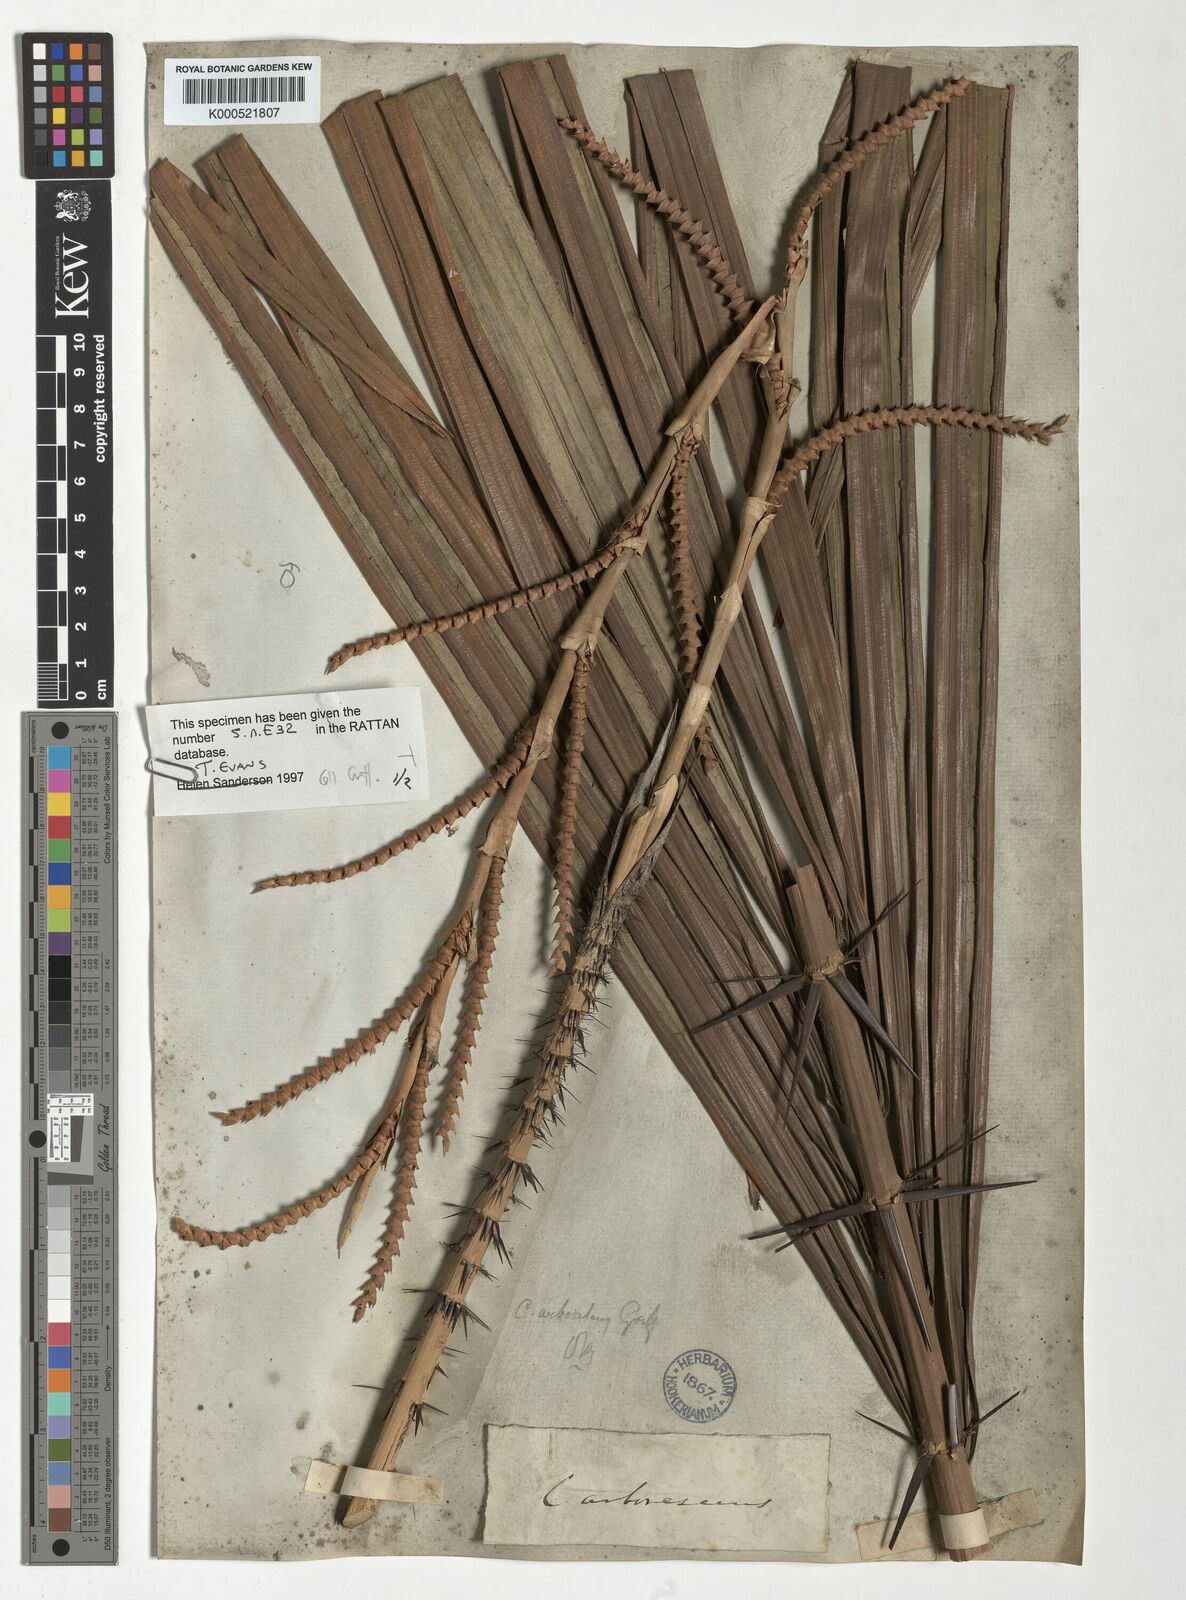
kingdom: Plantae
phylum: Tracheophyta
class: Liliopsida
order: Arecales
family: Arecaceae
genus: Calamus
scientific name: Calamus arborescens
